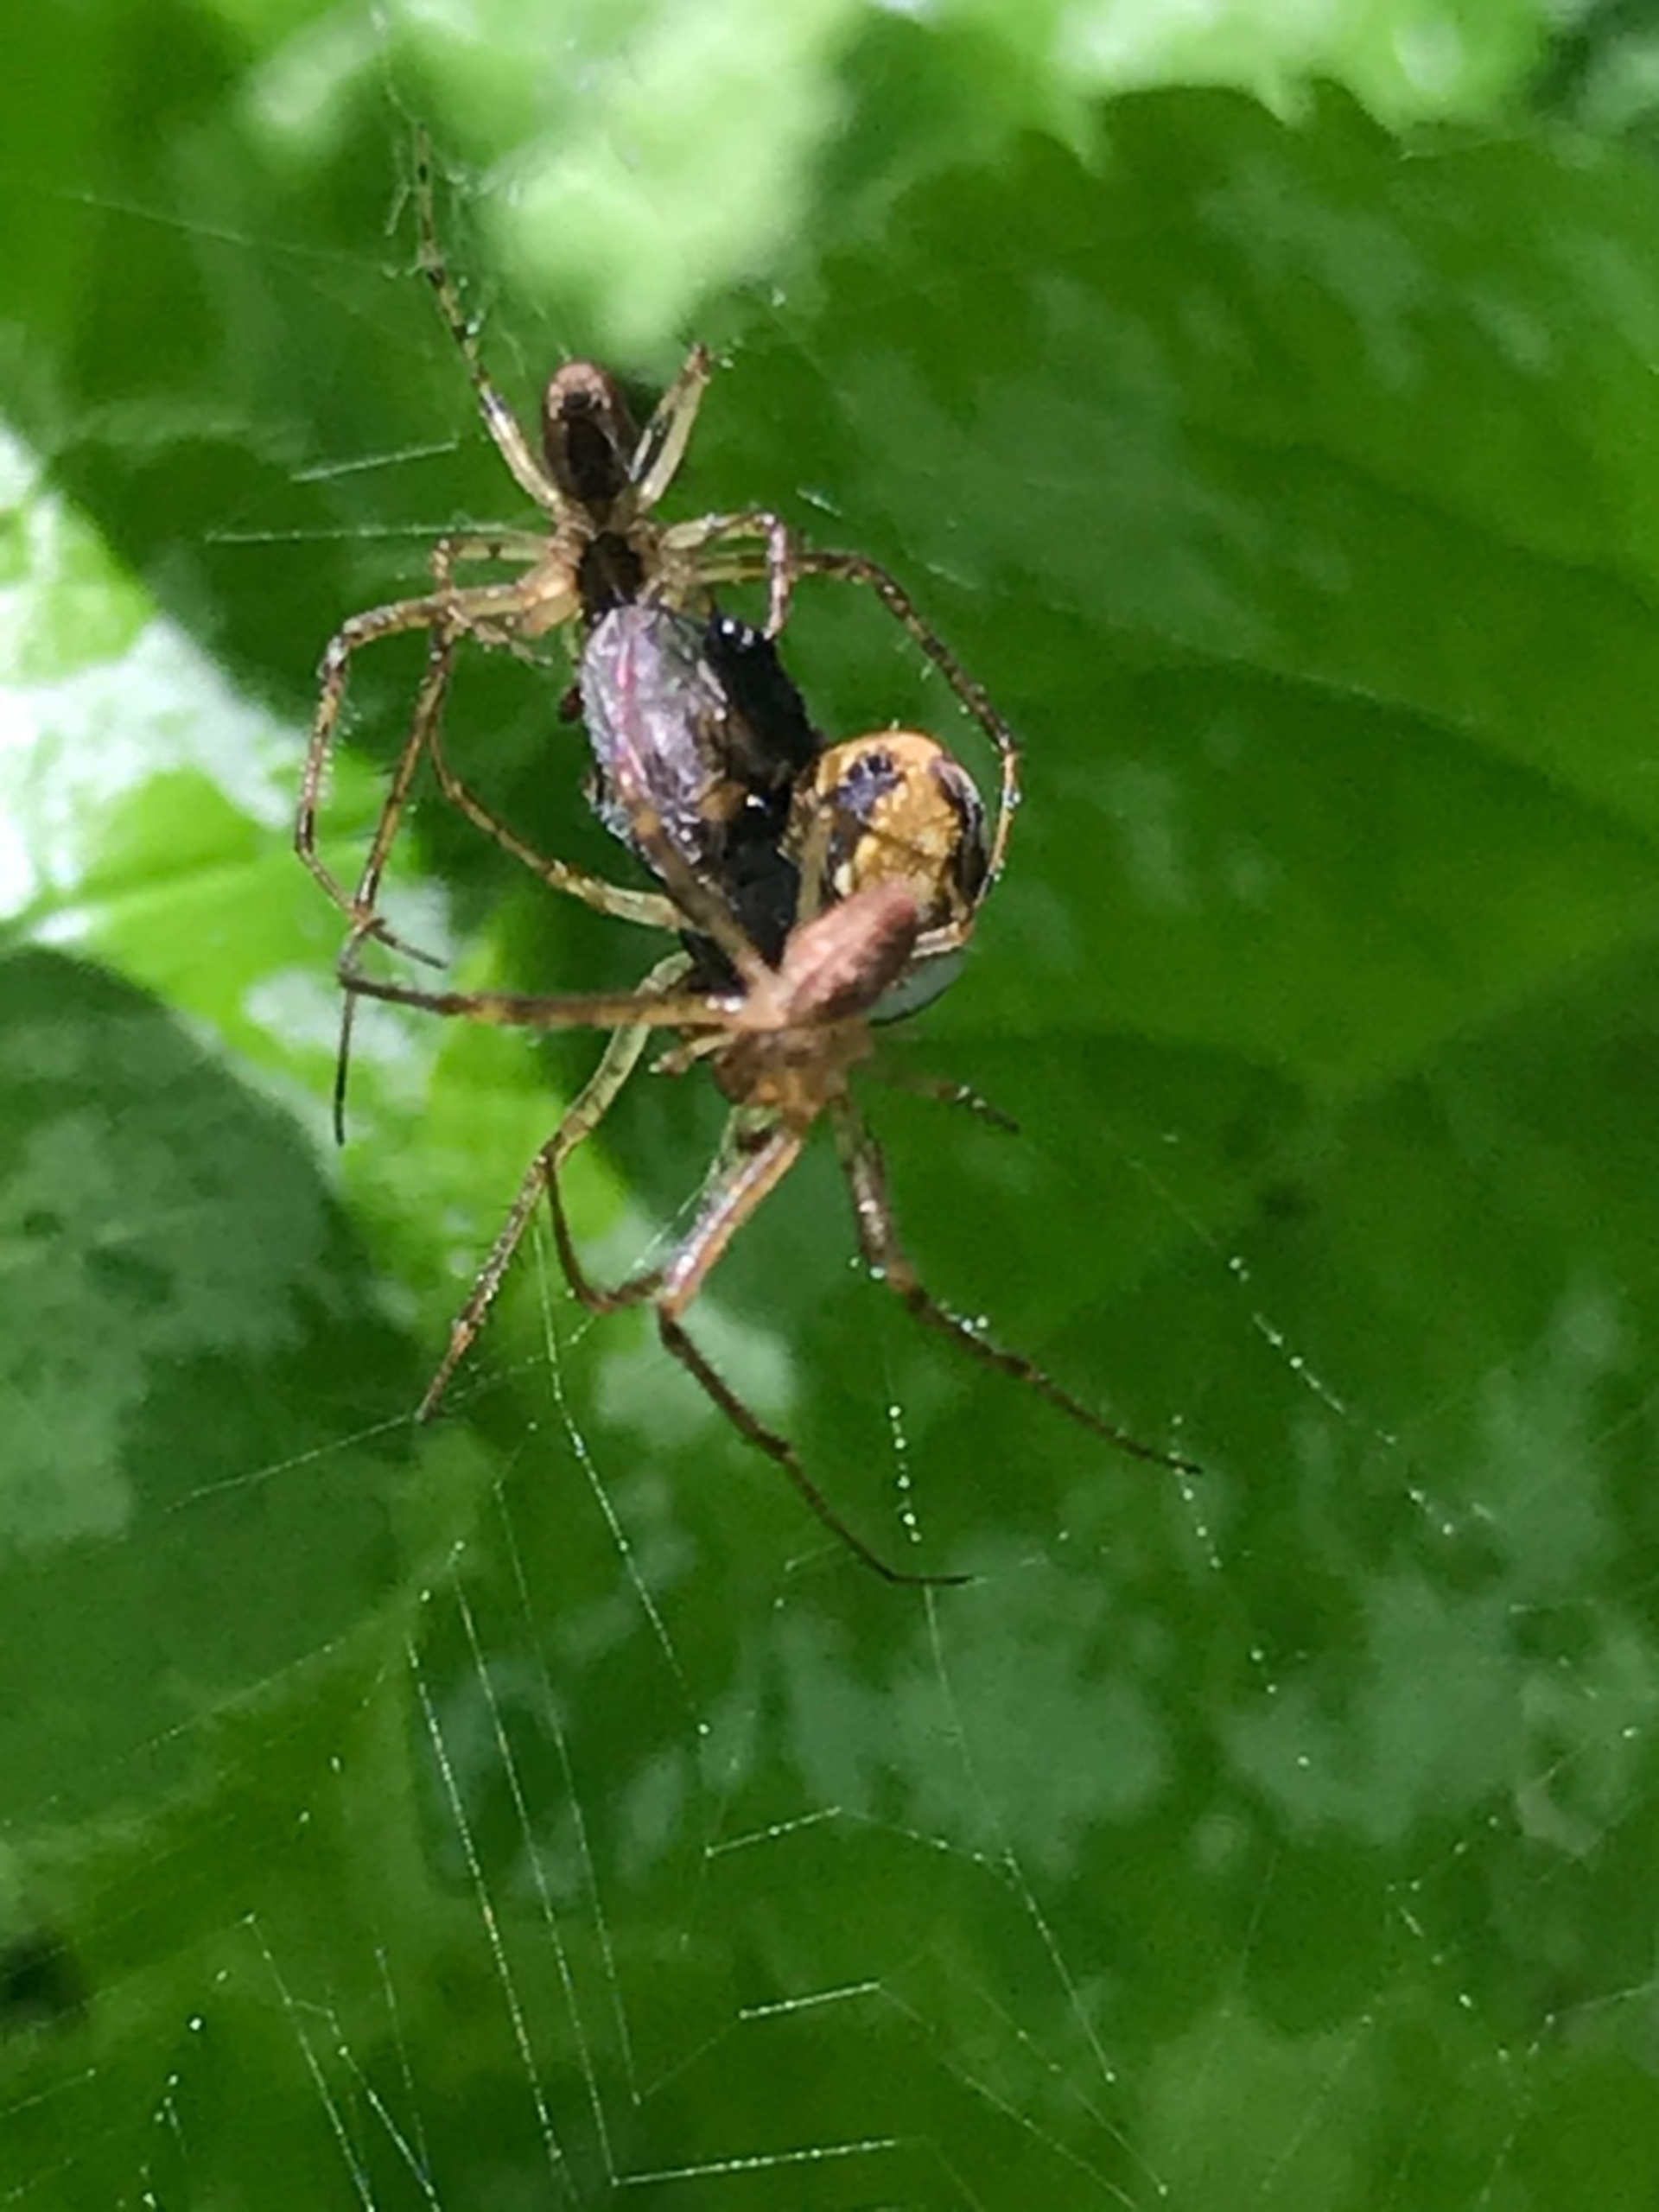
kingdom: Animalia
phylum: Arthropoda
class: Arachnida
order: Araneae
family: Tetragnathidae
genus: Metellina
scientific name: Metellina
